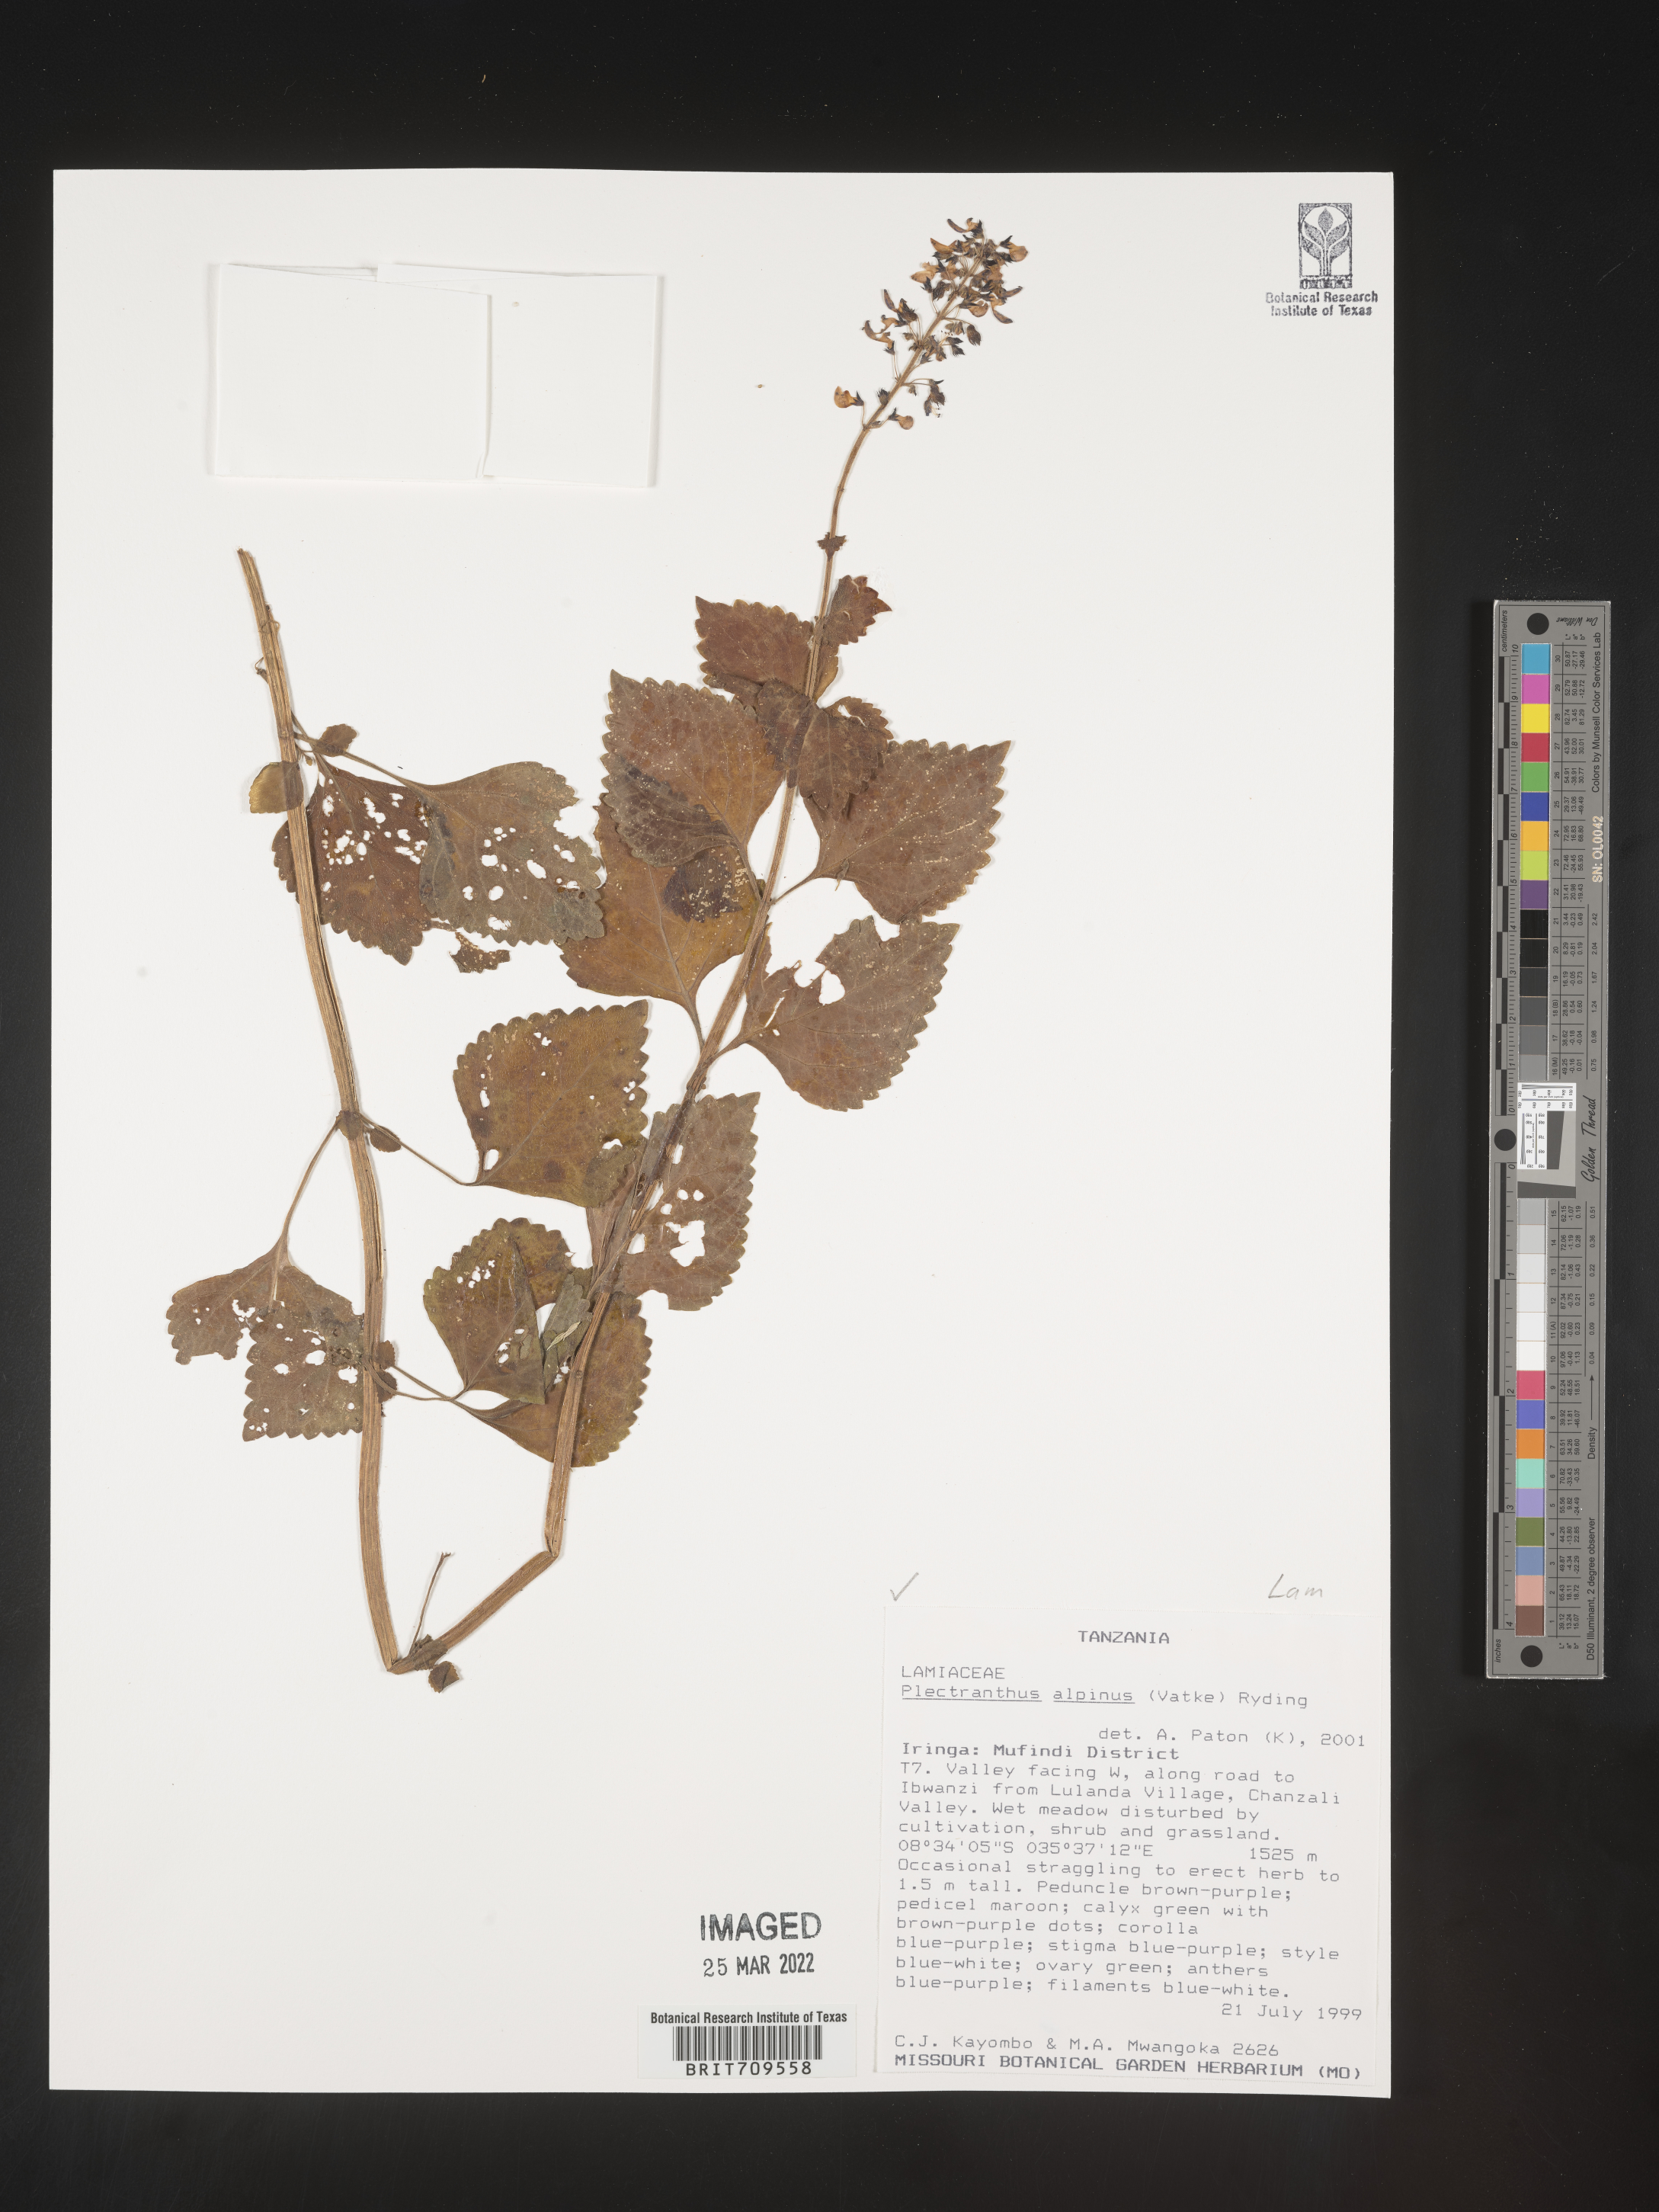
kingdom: Plantae
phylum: Tracheophyta
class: Magnoliopsida
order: Lamiales
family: Lamiaceae
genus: Plectranthus
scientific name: Plectranthus
